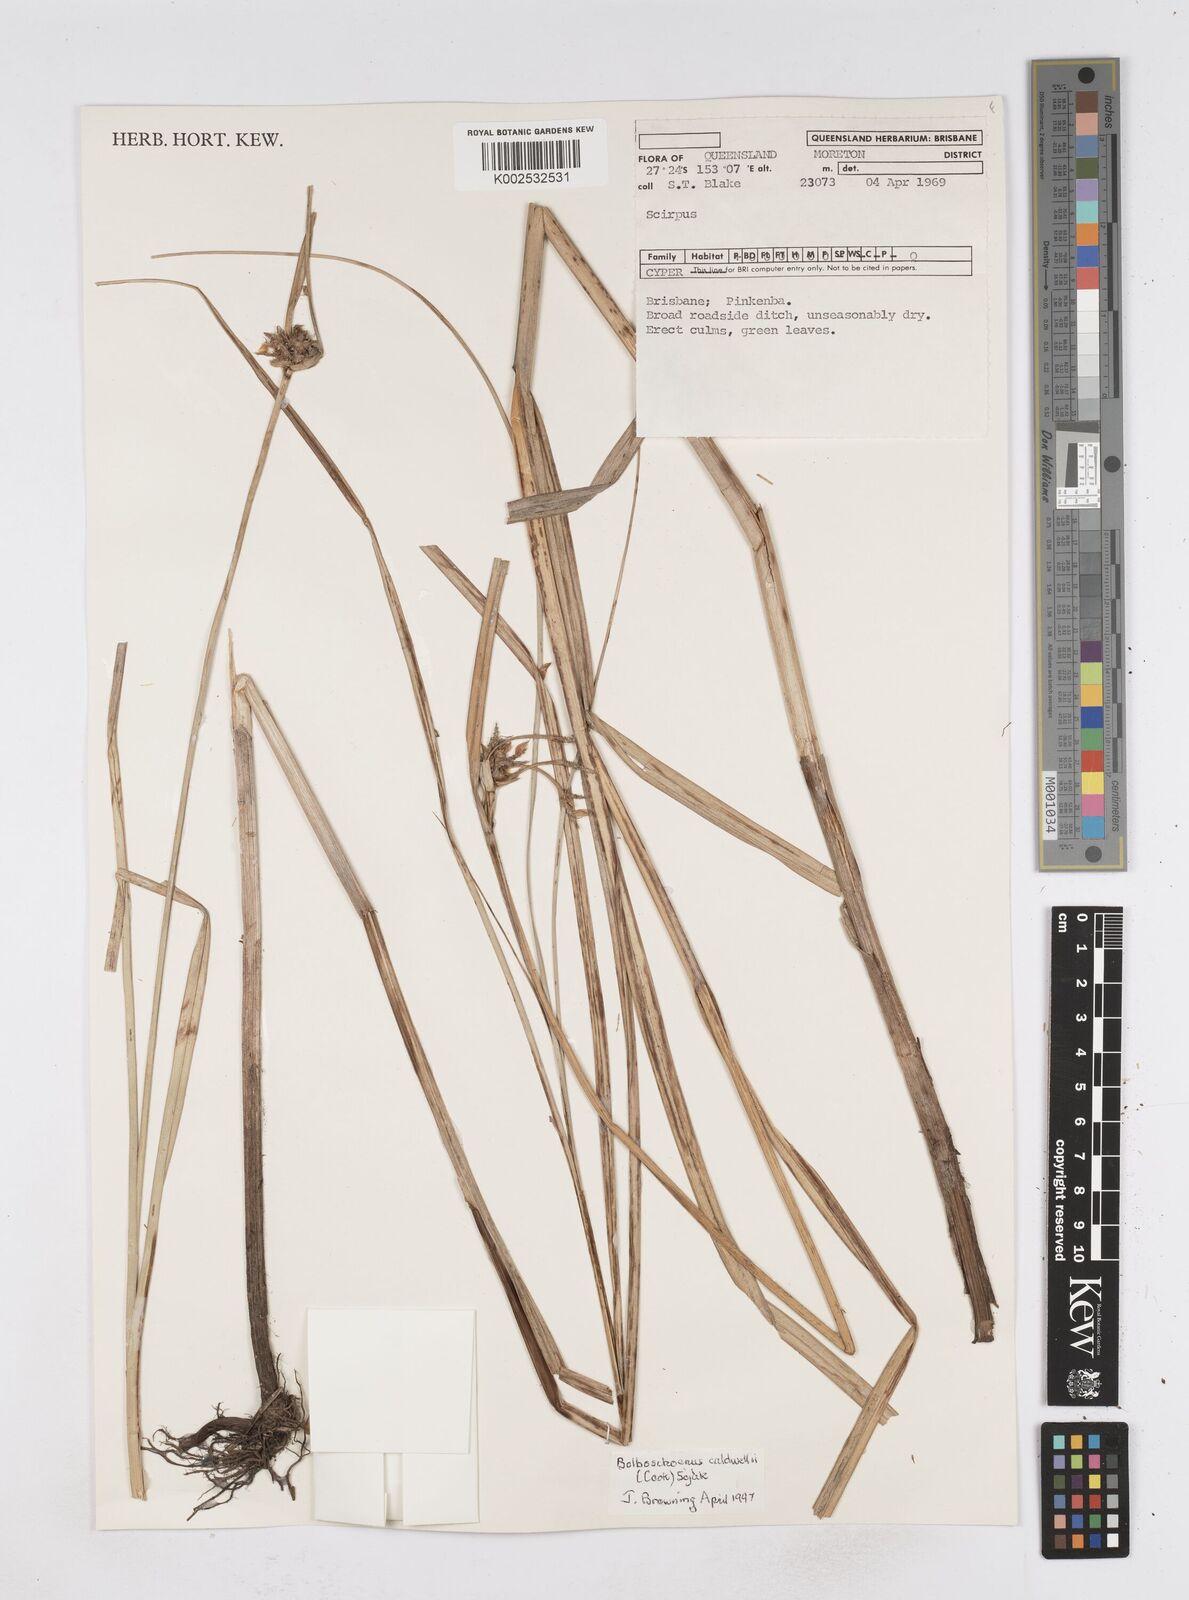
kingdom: Plantae
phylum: Tracheophyta
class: Liliopsida
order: Poales
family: Cyperaceae
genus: Bolboschoenus
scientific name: Bolboschoenus
